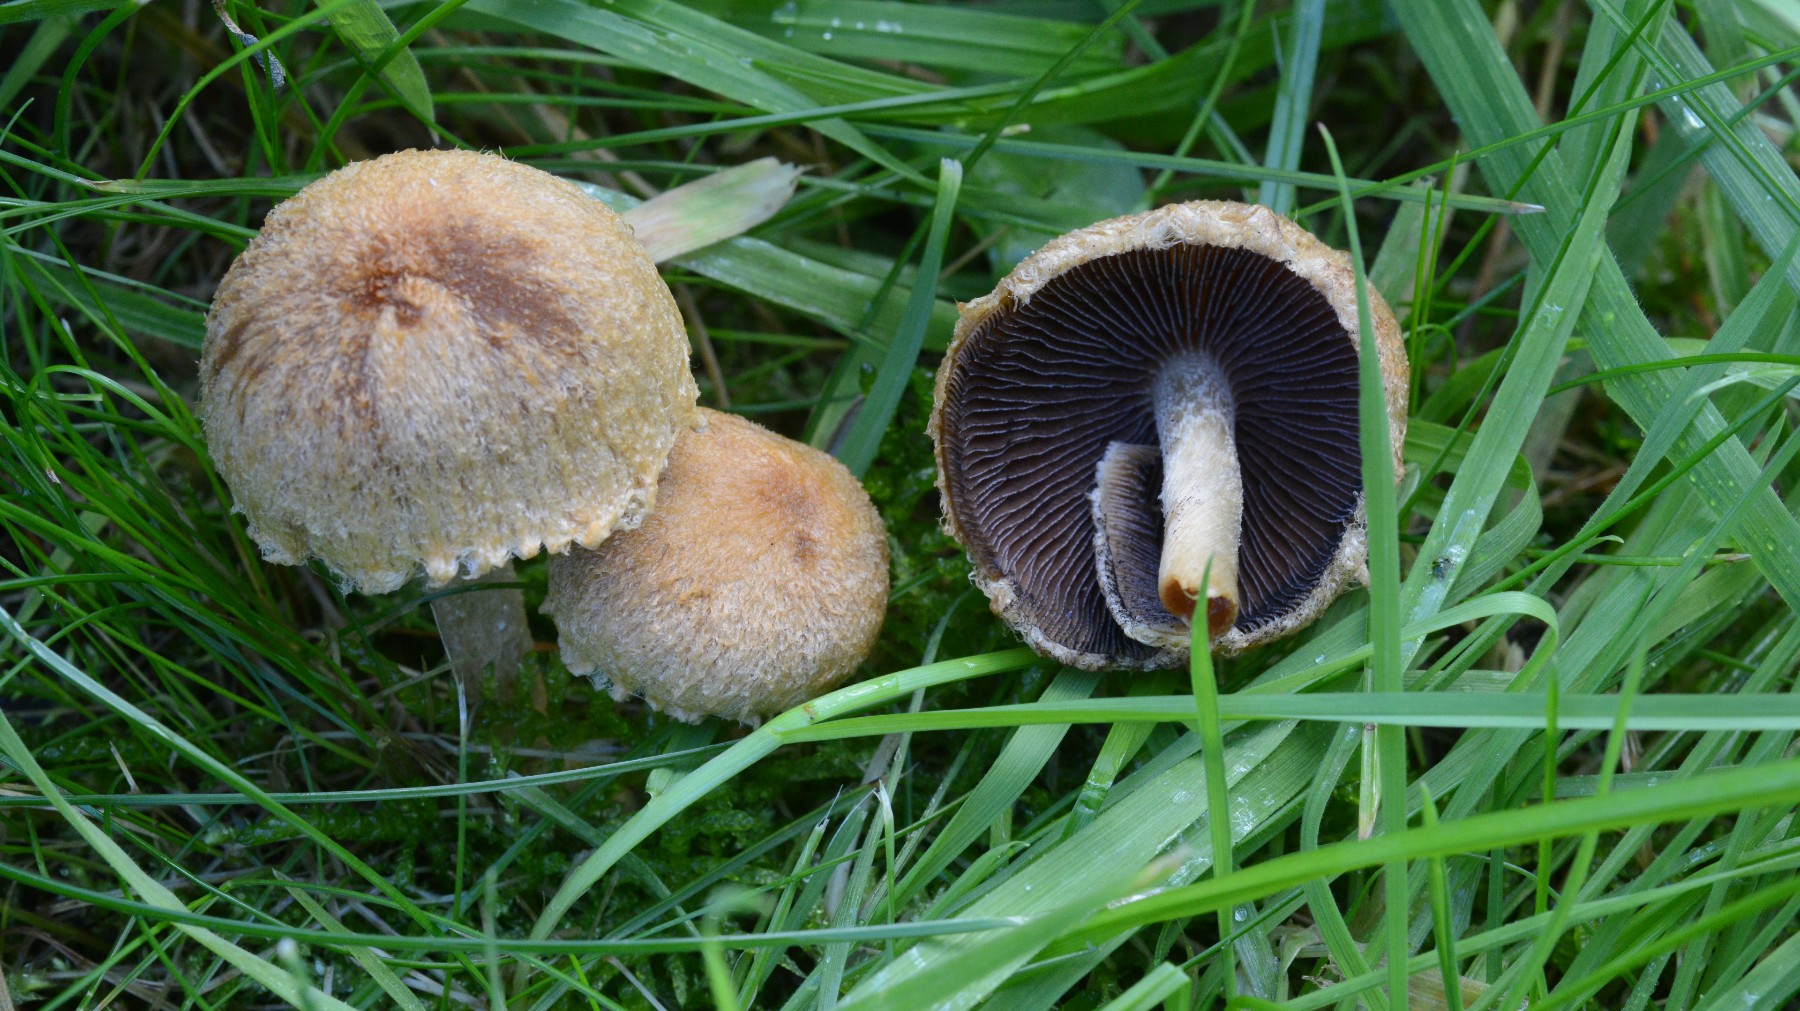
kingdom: Fungi
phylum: Basidiomycota
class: Agaricomycetes
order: Agaricales
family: Psathyrellaceae
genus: Lacrymaria
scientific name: Lacrymaria lacrymabunda
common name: grædende mørkhat
